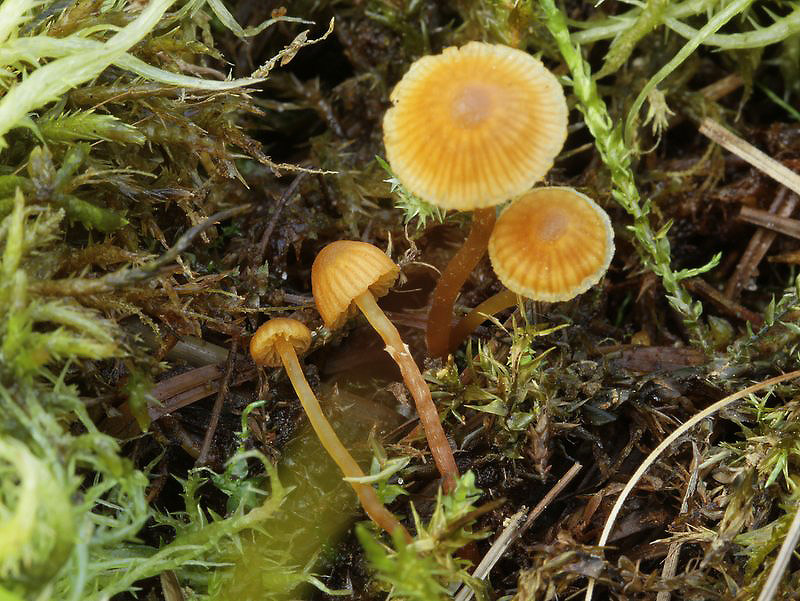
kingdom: Fungi
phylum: Basidiomycota
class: Agaricomycetes
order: Agaricales
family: Hymenogastraceae
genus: Galerina
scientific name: Galerina jaapii
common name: hvidbæltet hjelmhat
